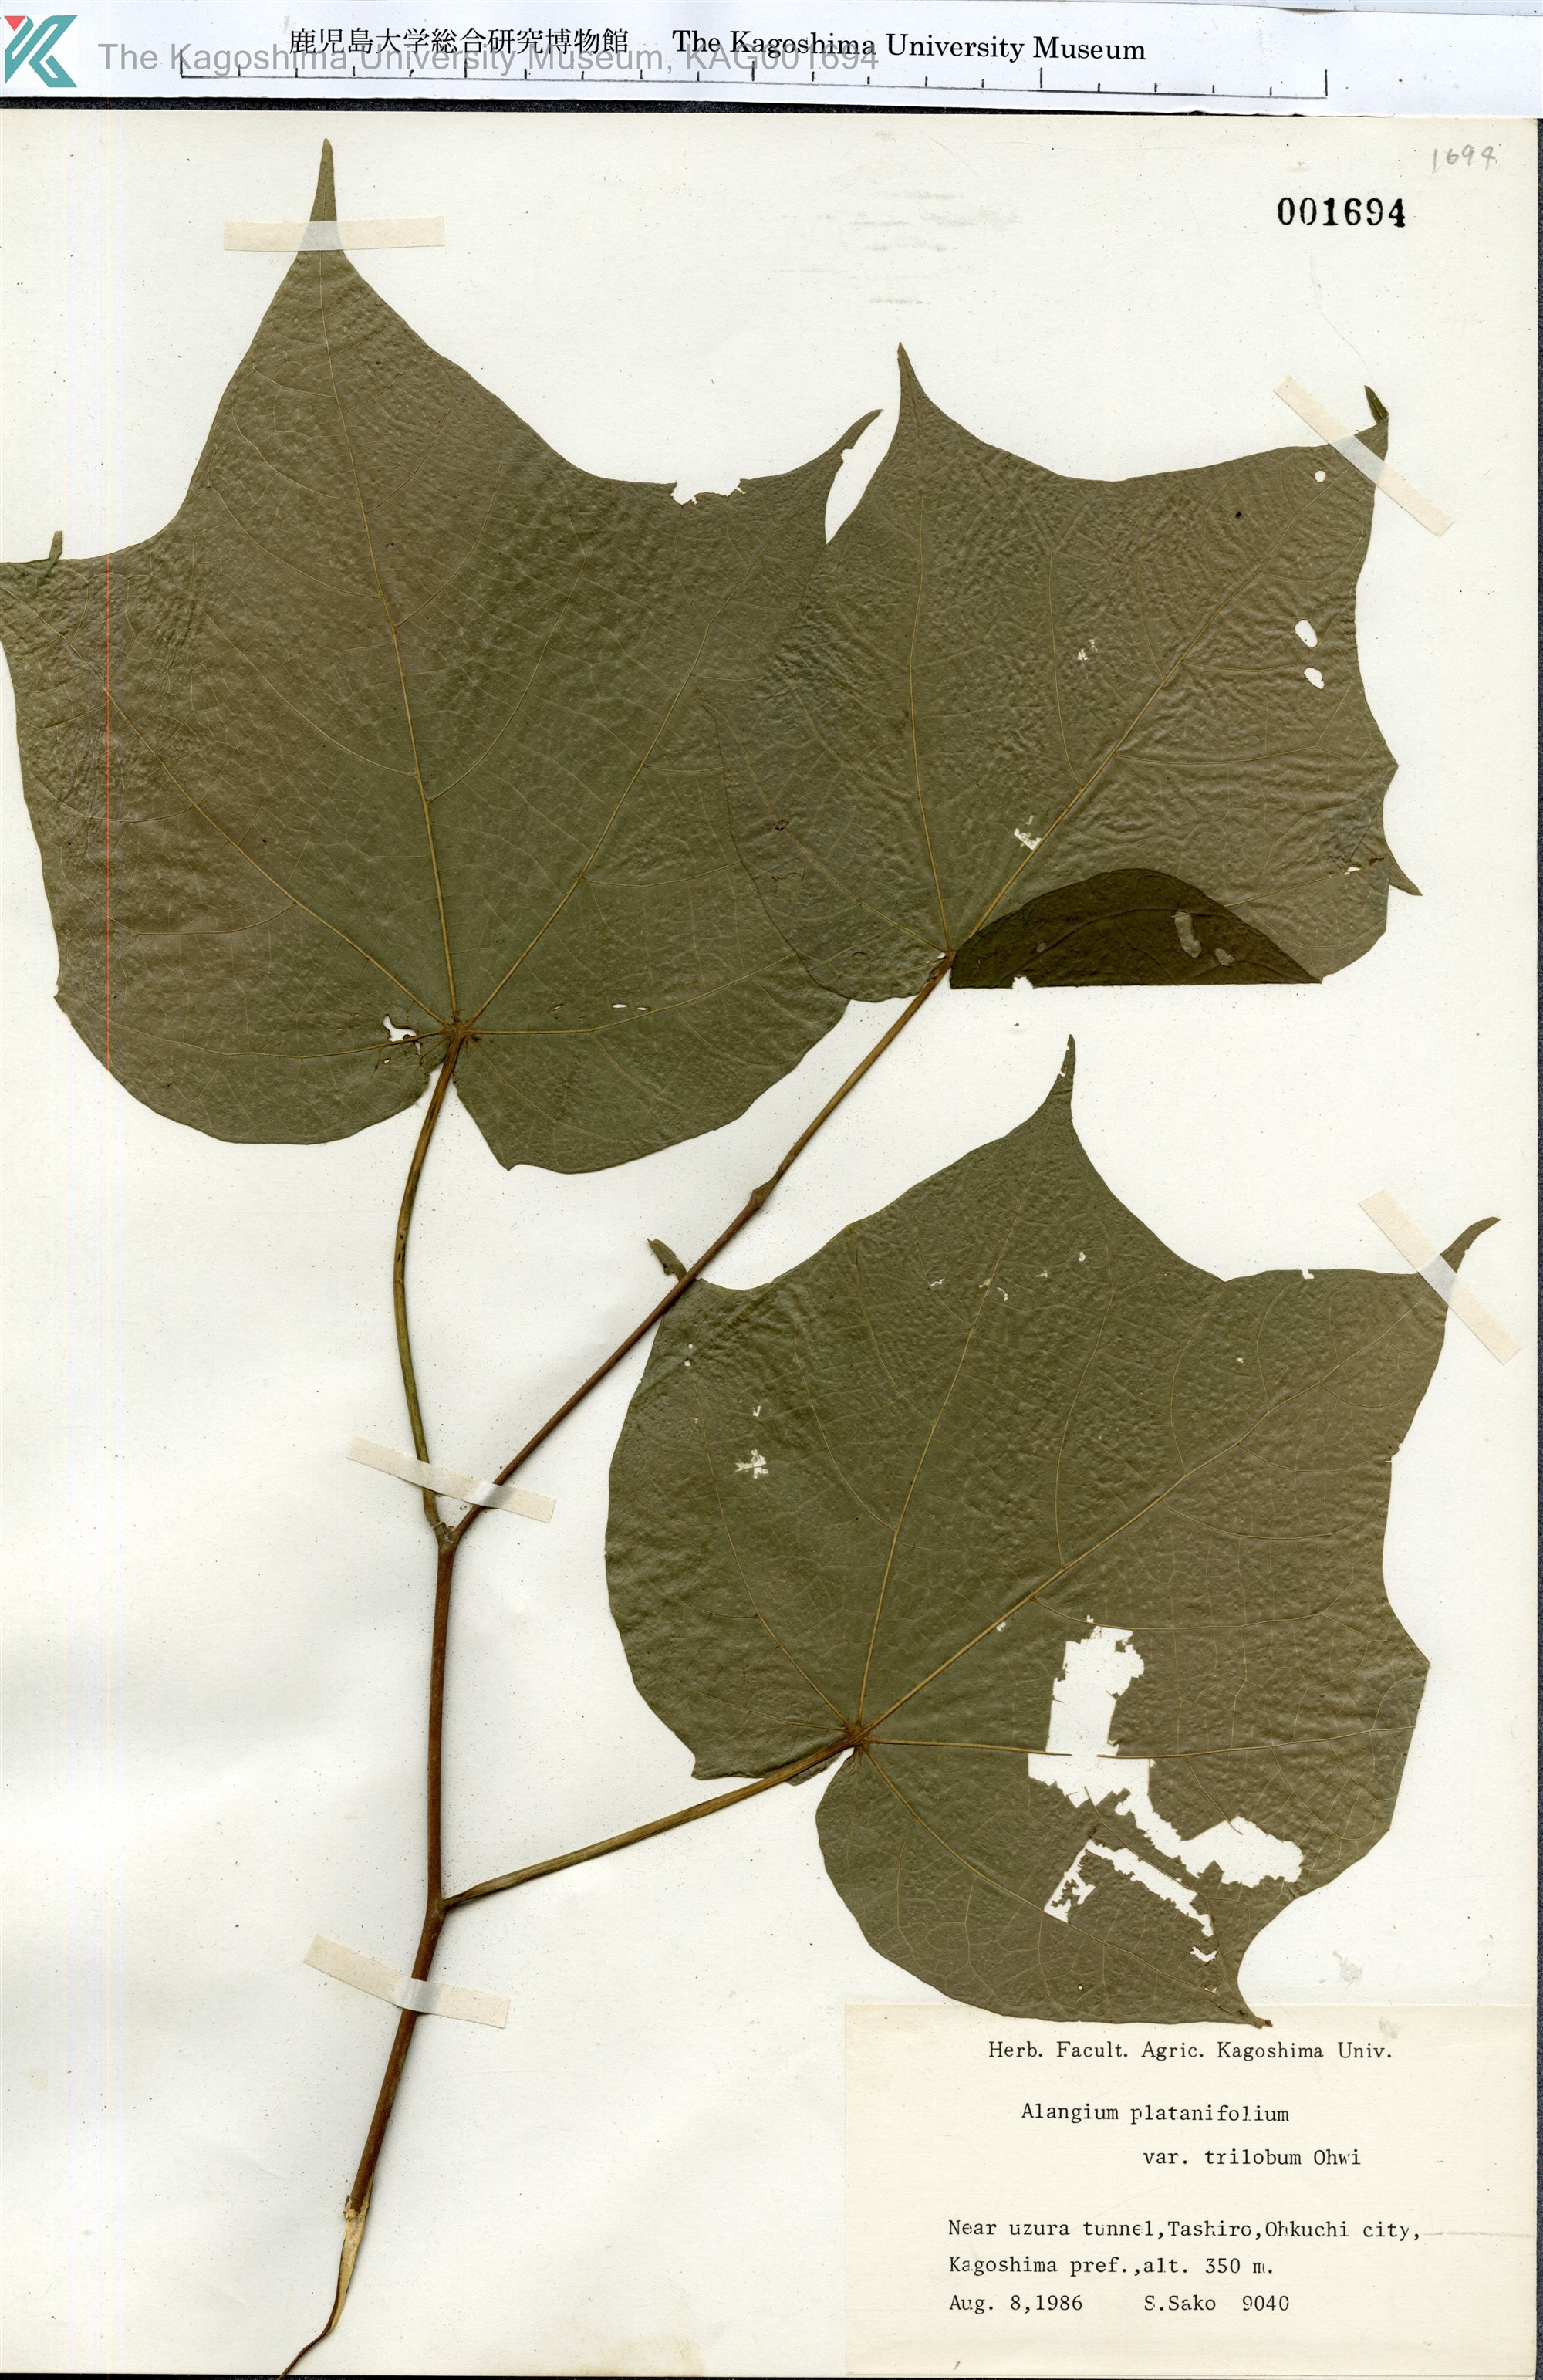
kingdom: Plantae
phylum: Tracheophyta
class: Magnoliopsida
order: Cornales
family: Cornaceae
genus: Alangium
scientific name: Alangium platanifolium
